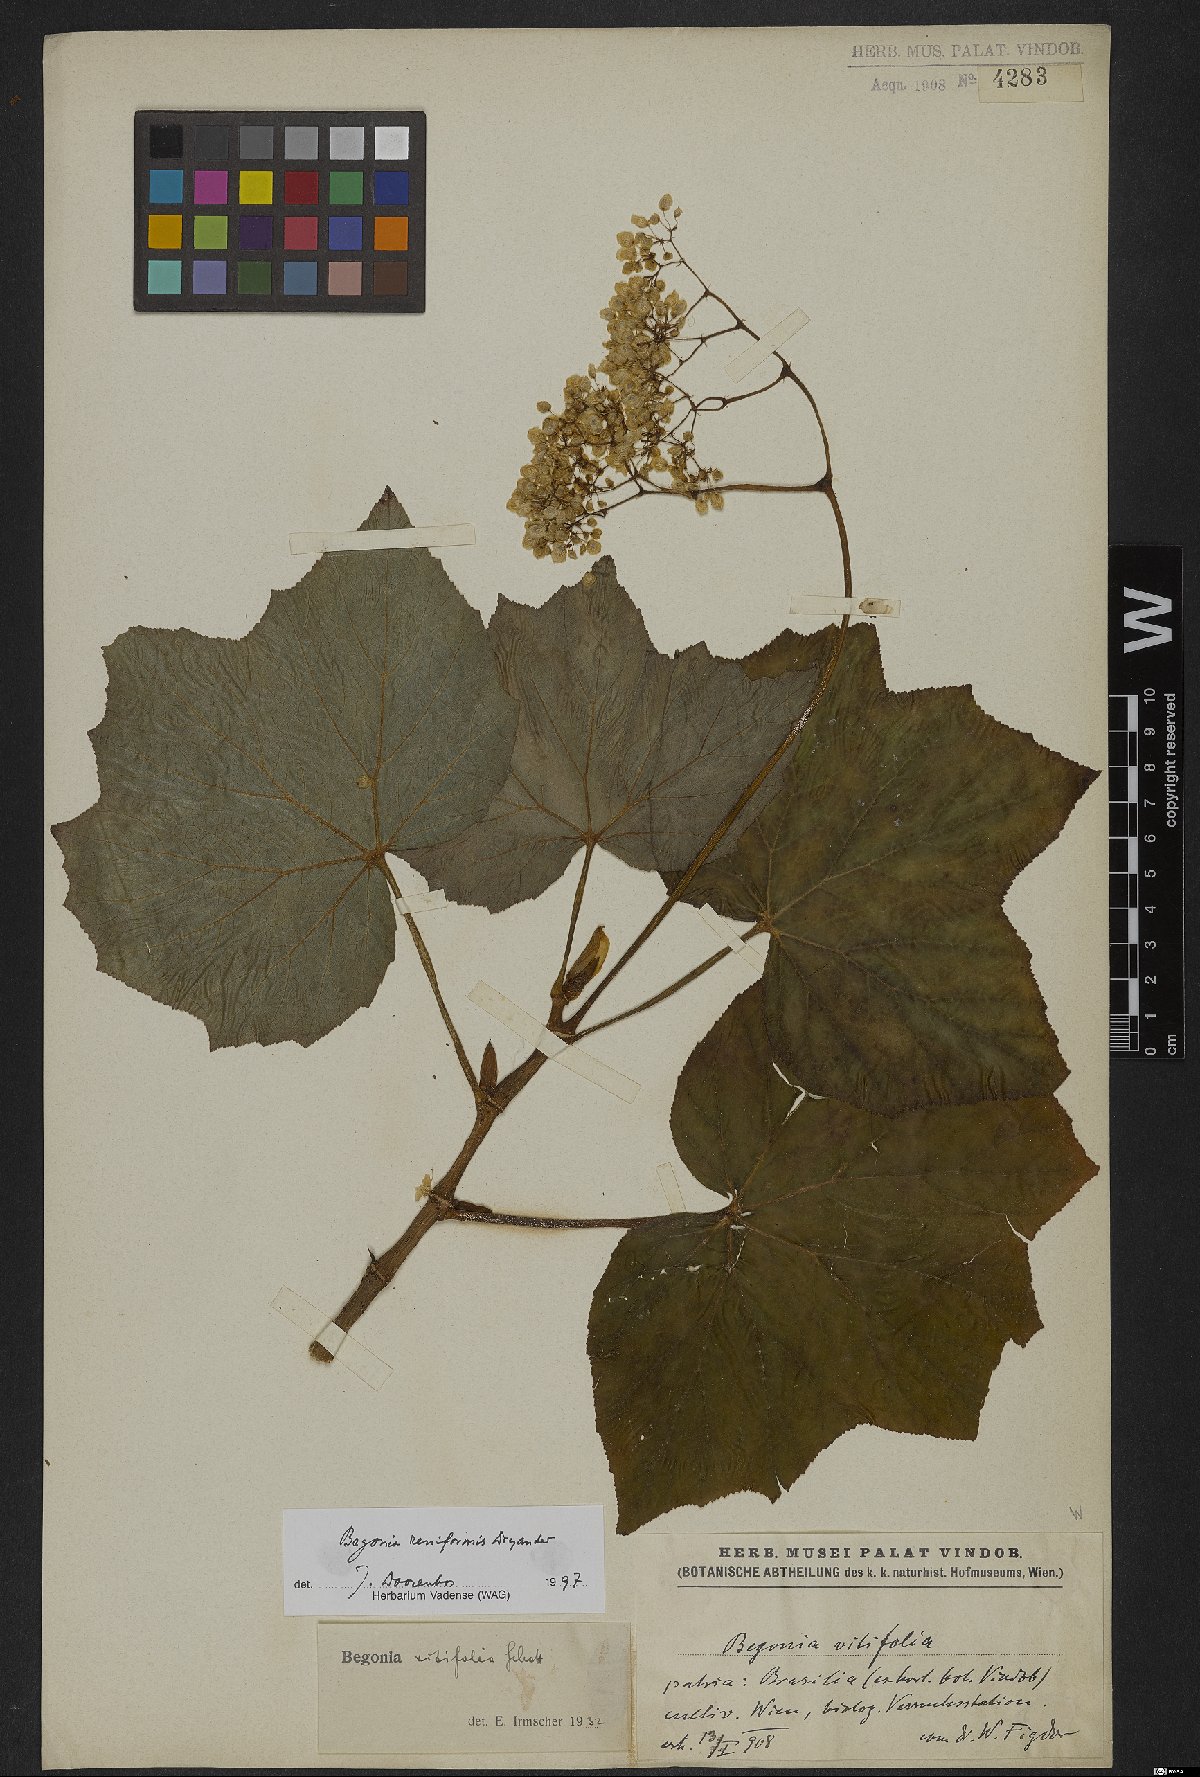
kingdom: Plantae
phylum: Tracheophyta
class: Magnoliopsida
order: Cucurbitales
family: Begoniaceae
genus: Begonia
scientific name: Begonia reniformis
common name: Grapeleaf begonia
